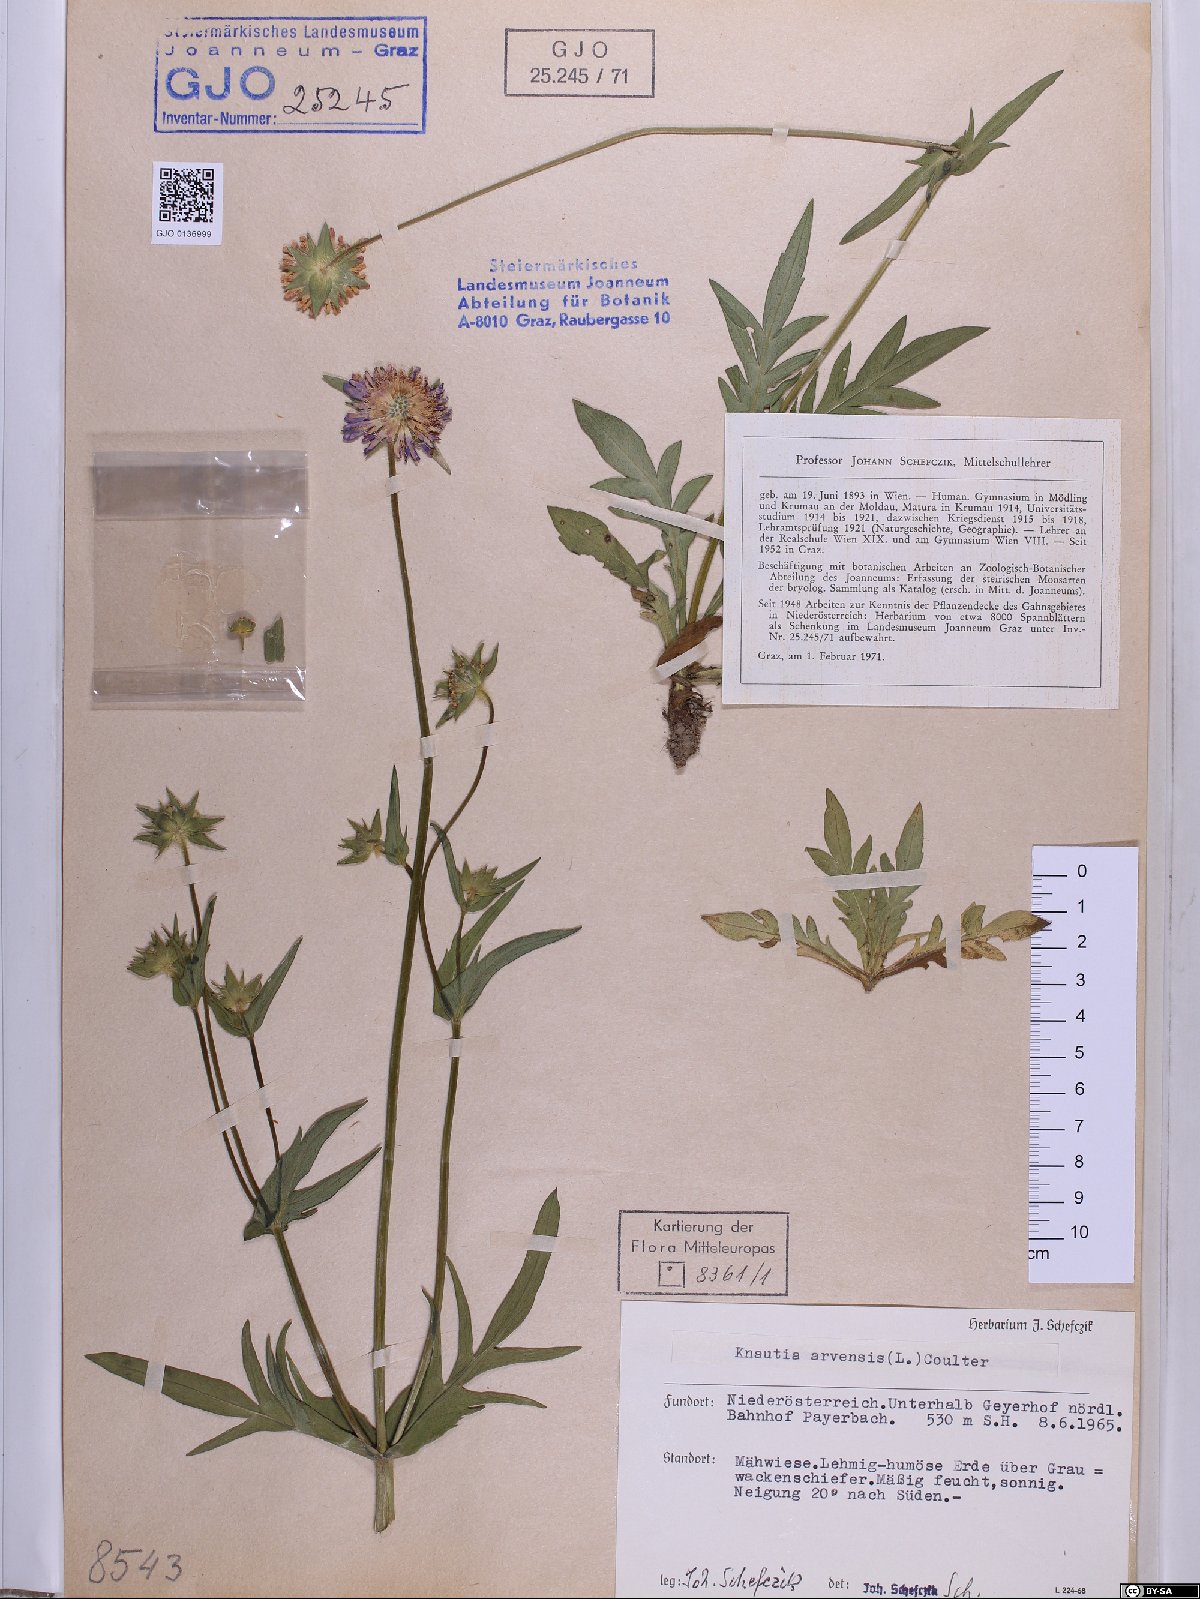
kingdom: Plantae
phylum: Tracheophyta
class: Magnoliopsida
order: Dipsacales
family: Caprifoliaceae
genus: Knautia
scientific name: Knautia arvensis
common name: Field scabiosa
